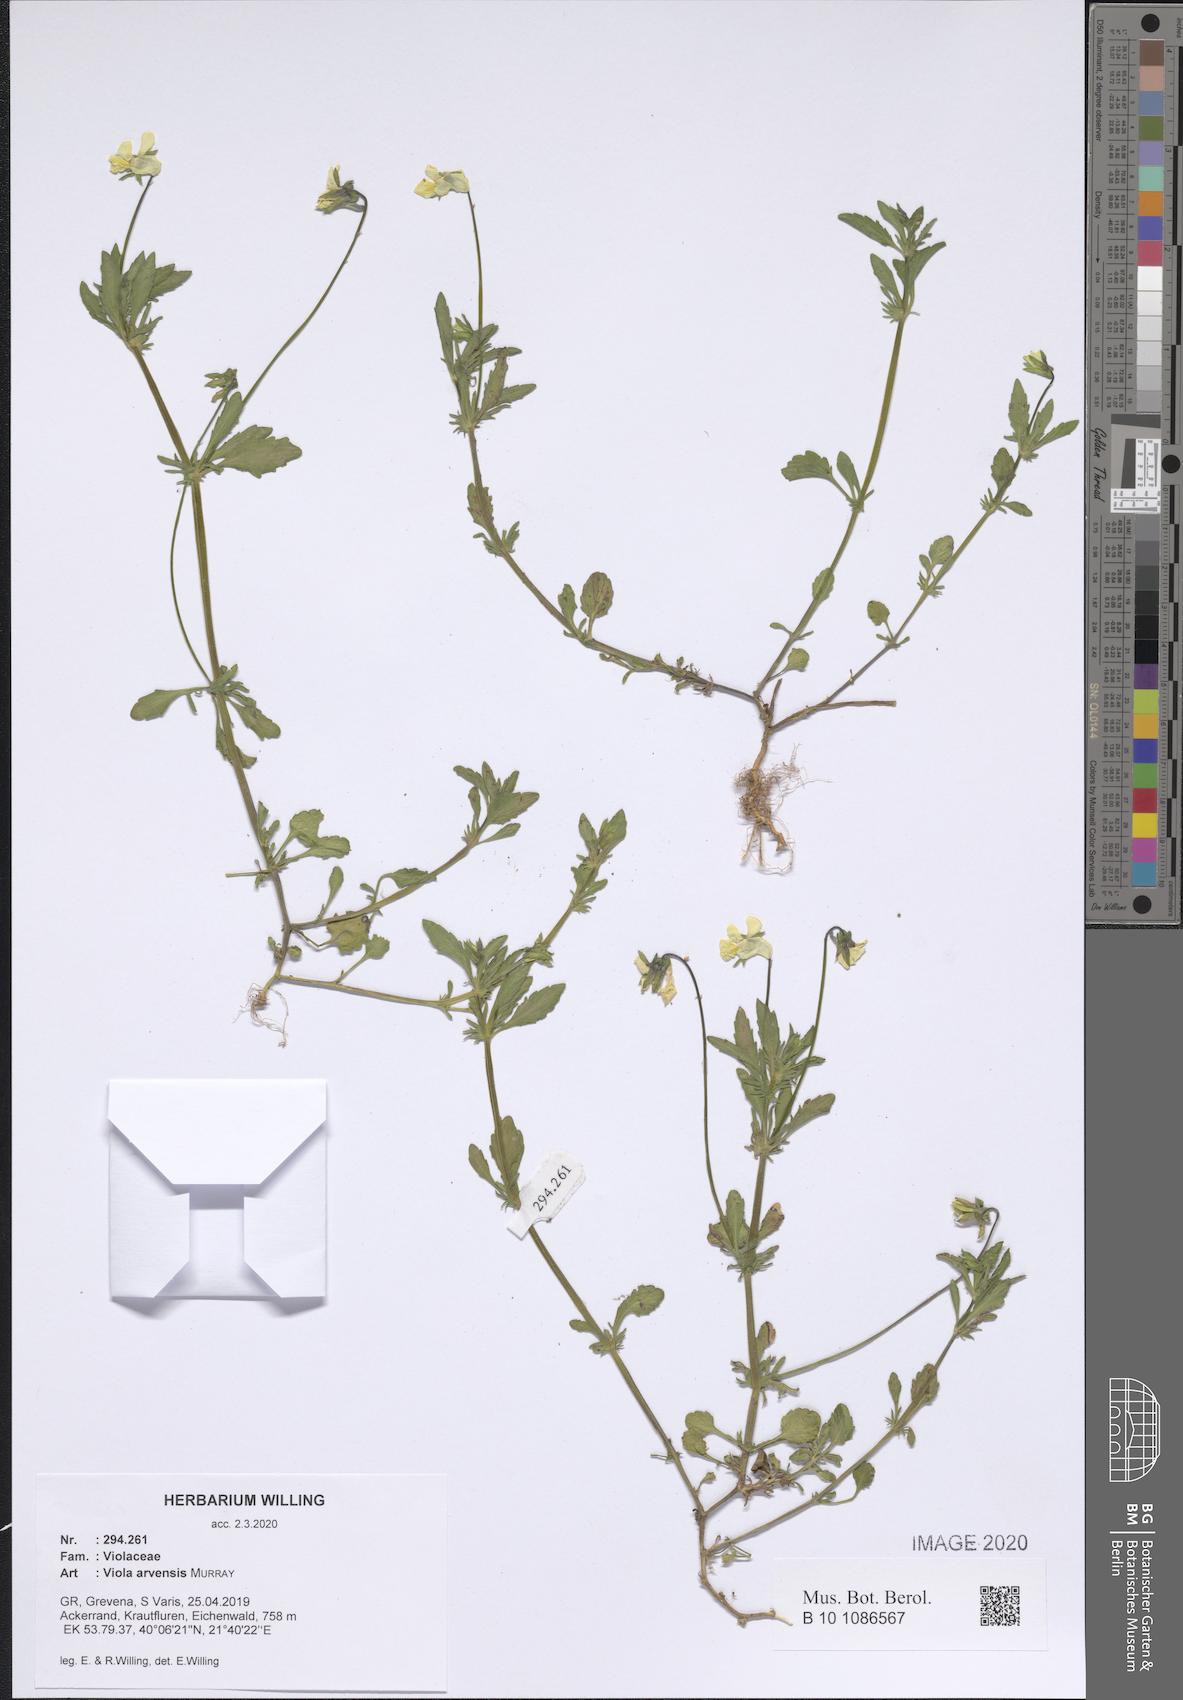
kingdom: Plantae
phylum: Tracheophyta
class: Magnoliopsida
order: Malpighiales
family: Violaceae
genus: Viola
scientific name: Viola arvensis
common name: Field pansy
